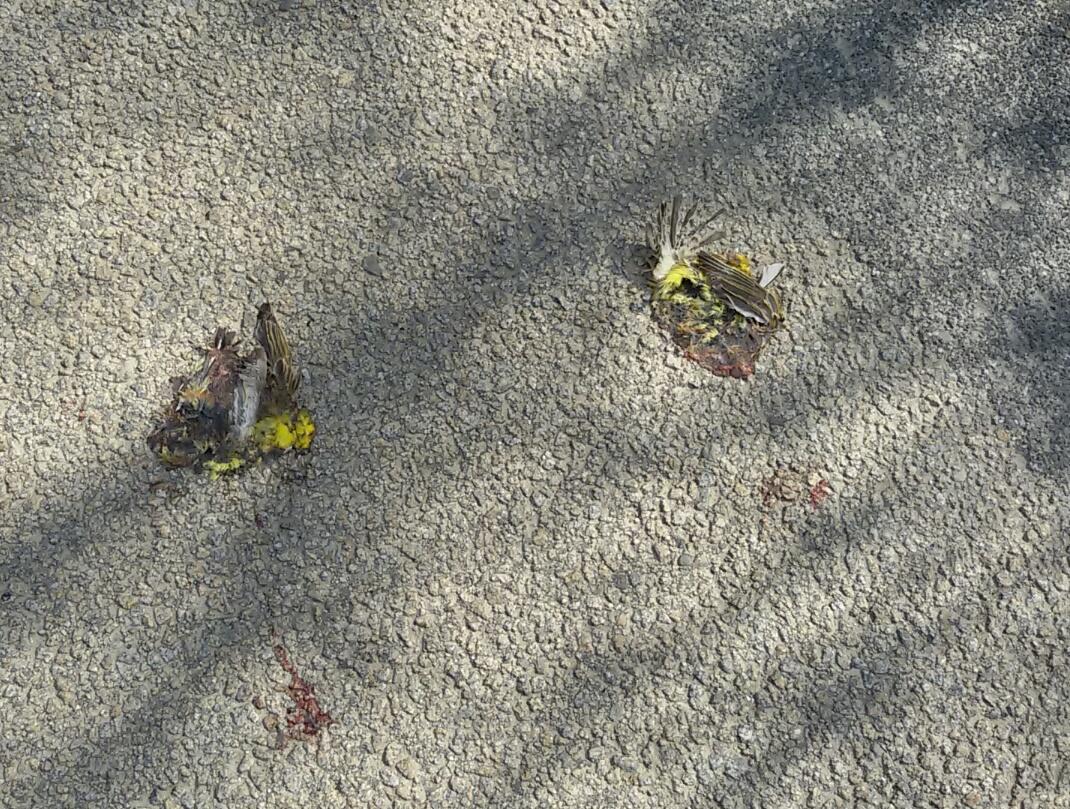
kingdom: Animalia
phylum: Chordata
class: Aves
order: Passeriformes
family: Fringillidae
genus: Serinus
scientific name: Serinus serinus
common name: European serin
